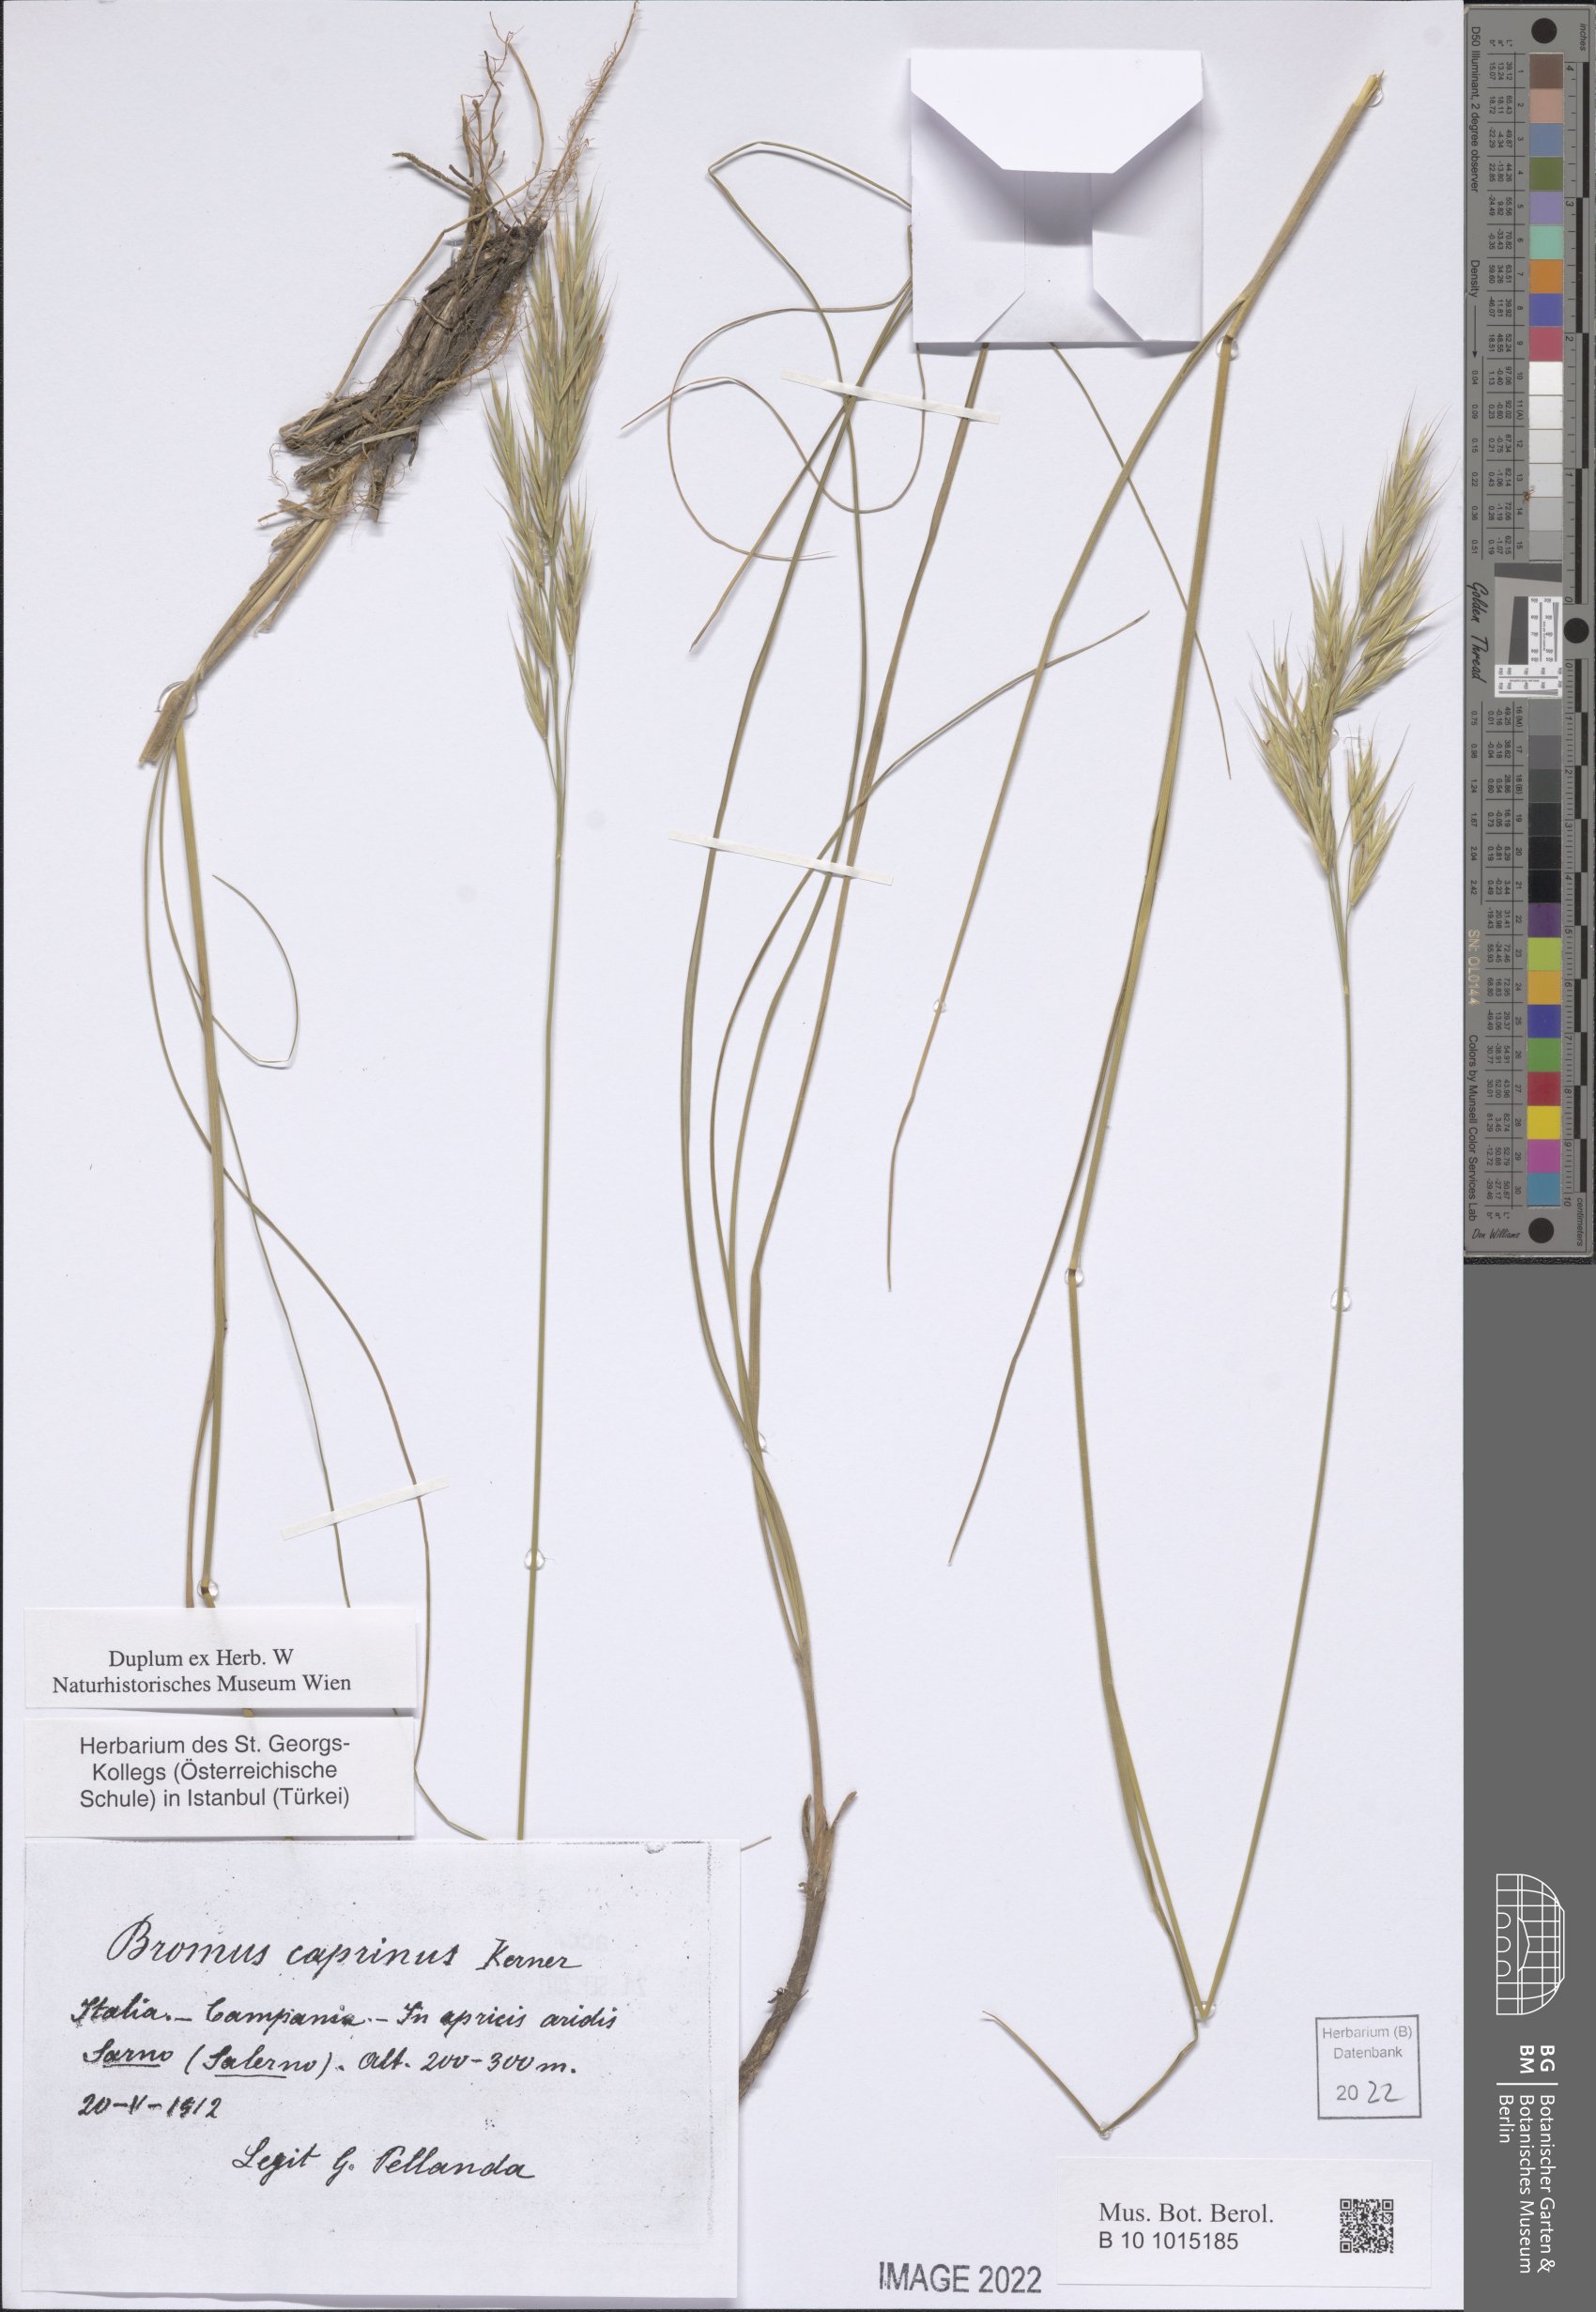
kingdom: Plantae
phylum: Tracheophyta
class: Liliopsida
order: Poales
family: Poaceae
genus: Bromus
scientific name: Bromus erectus
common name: Erect brome
